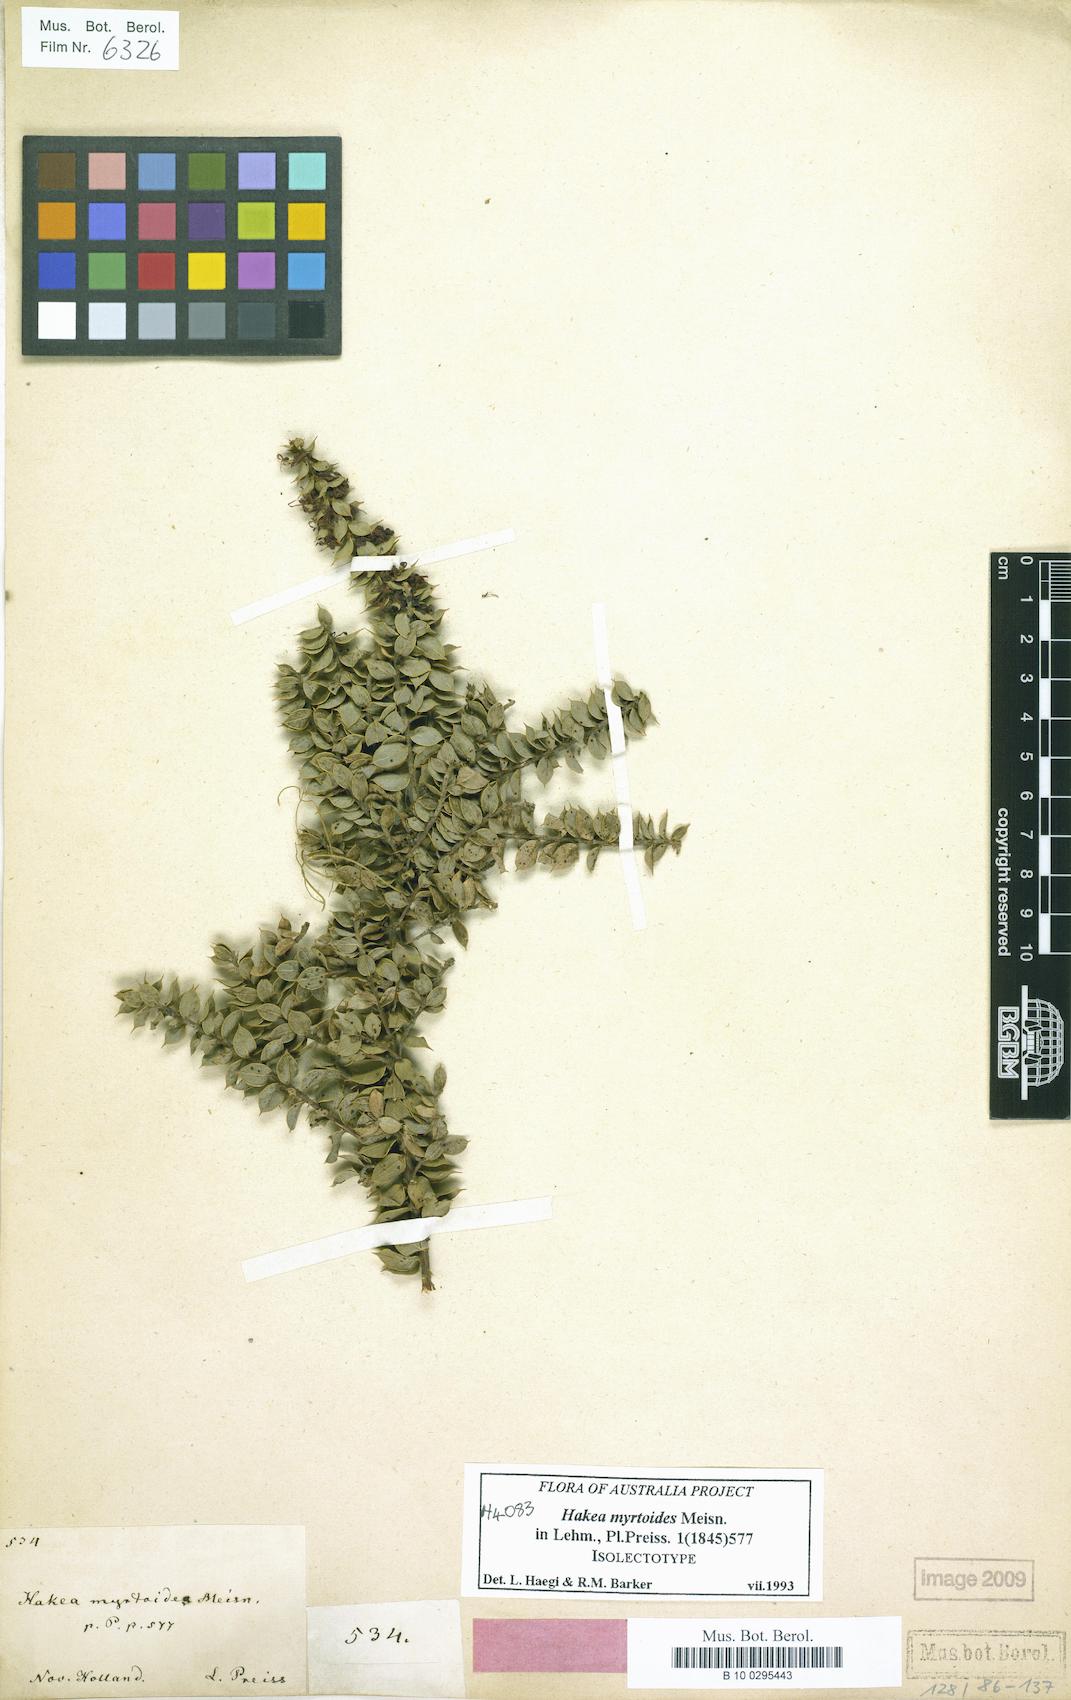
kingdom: Plantae
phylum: Tracheophyta
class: Magnoliopsida
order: Proteales
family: Proteaceae
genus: Hakea
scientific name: Hakea myrtoides
